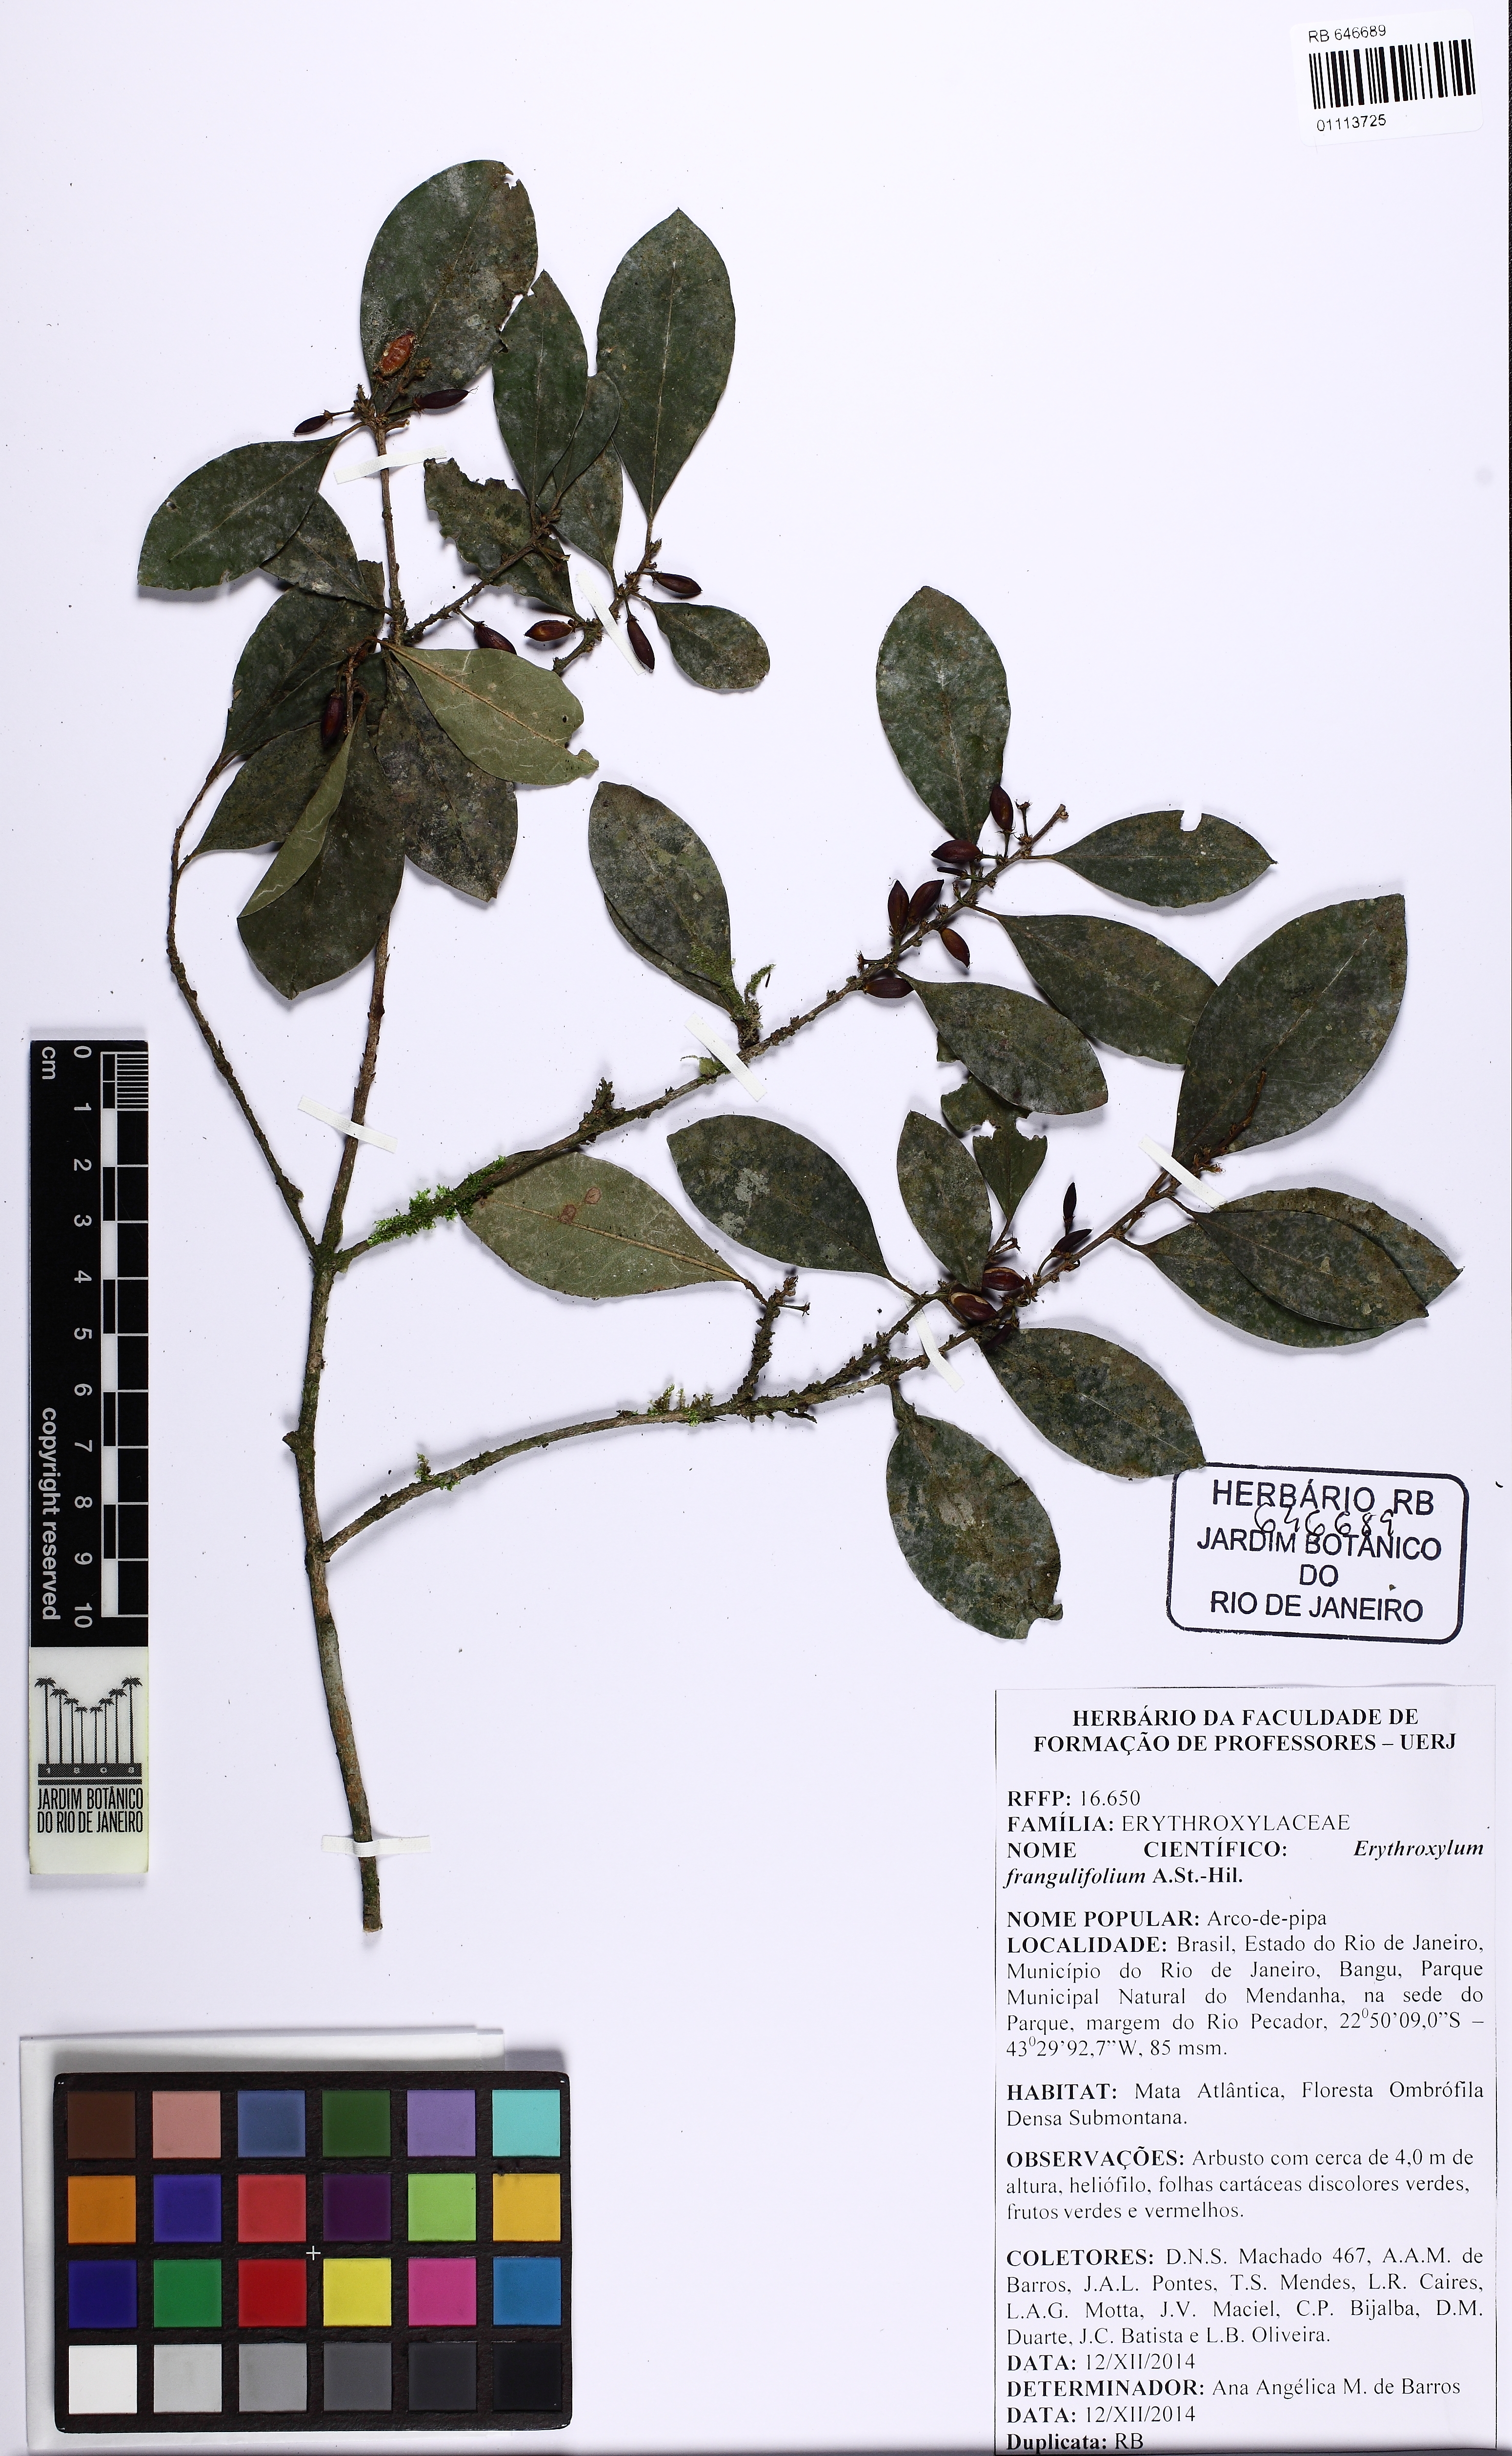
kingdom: Plantae
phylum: Tracheophyta
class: Magnoliopsida
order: Malpighiales
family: Erythroxylaceae
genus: Erythroxylum
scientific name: Erythroxylum frangulifolium
